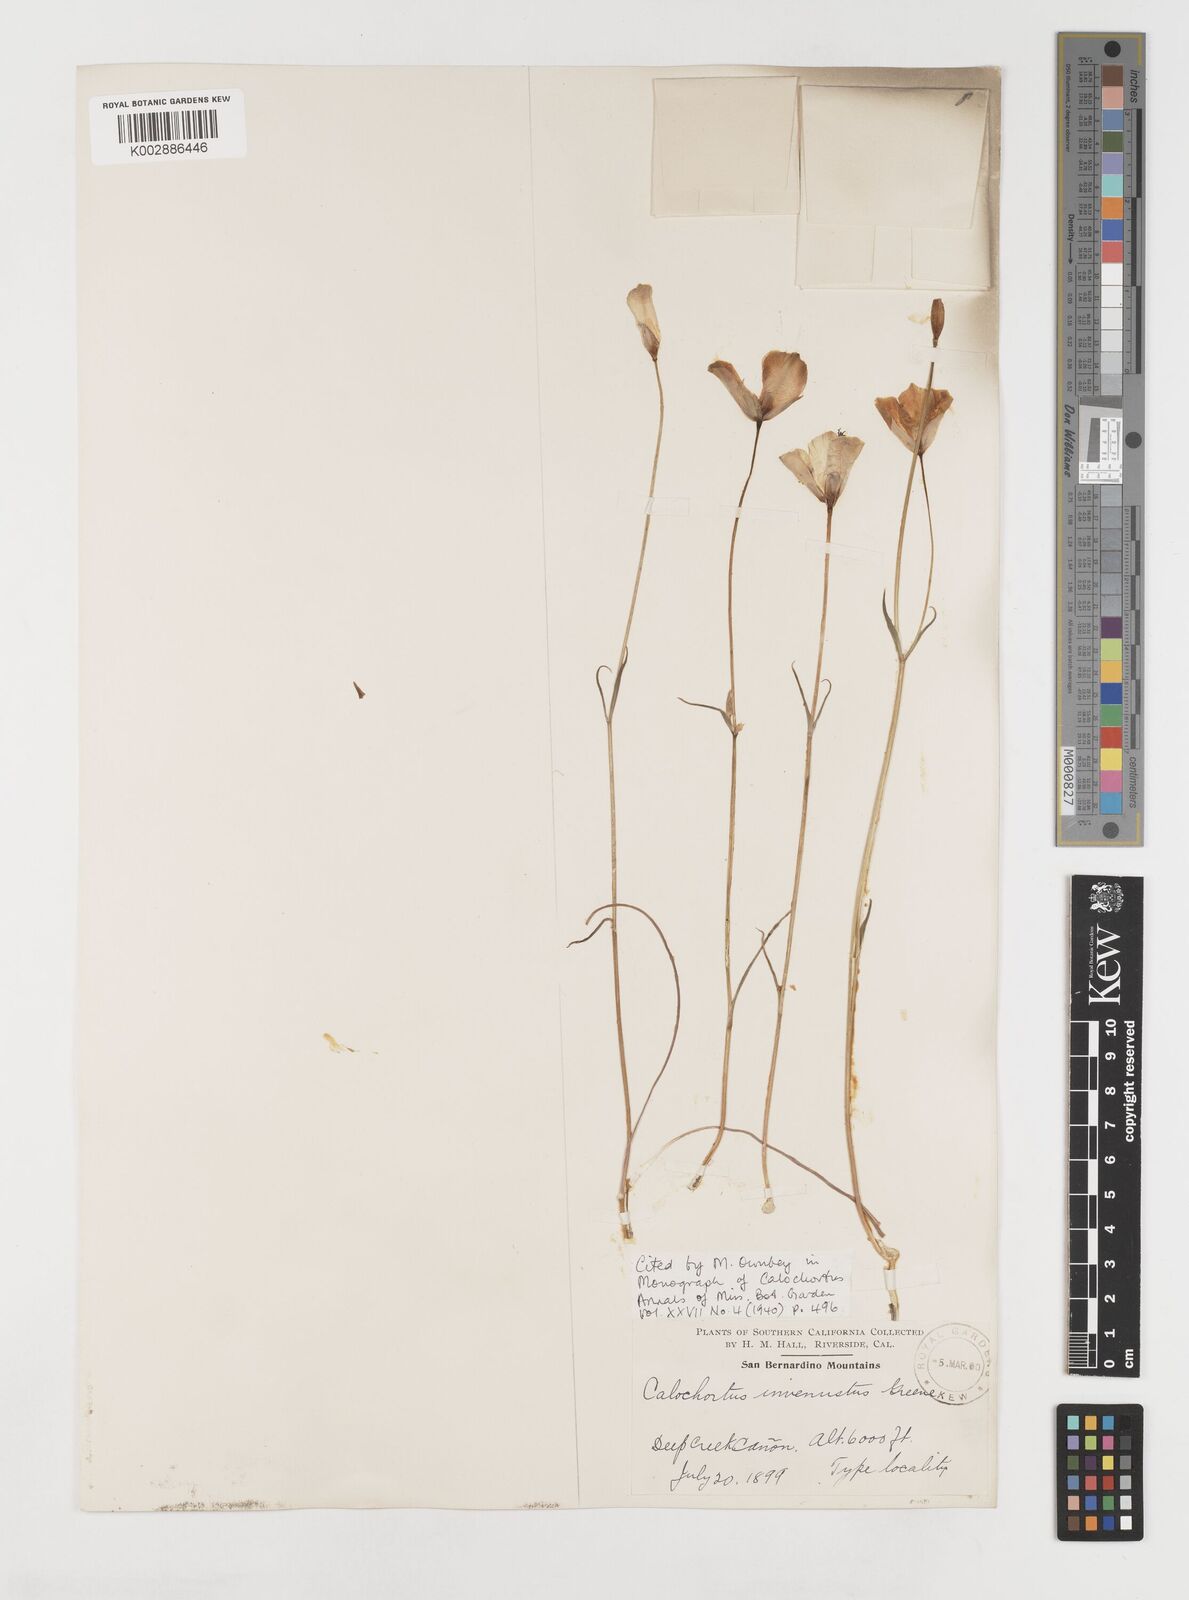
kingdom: Plantae
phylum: Tracheophyta
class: Liliopsida
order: Liliales
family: Liliaceae
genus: Calochortus
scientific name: Calochortus invenustus
